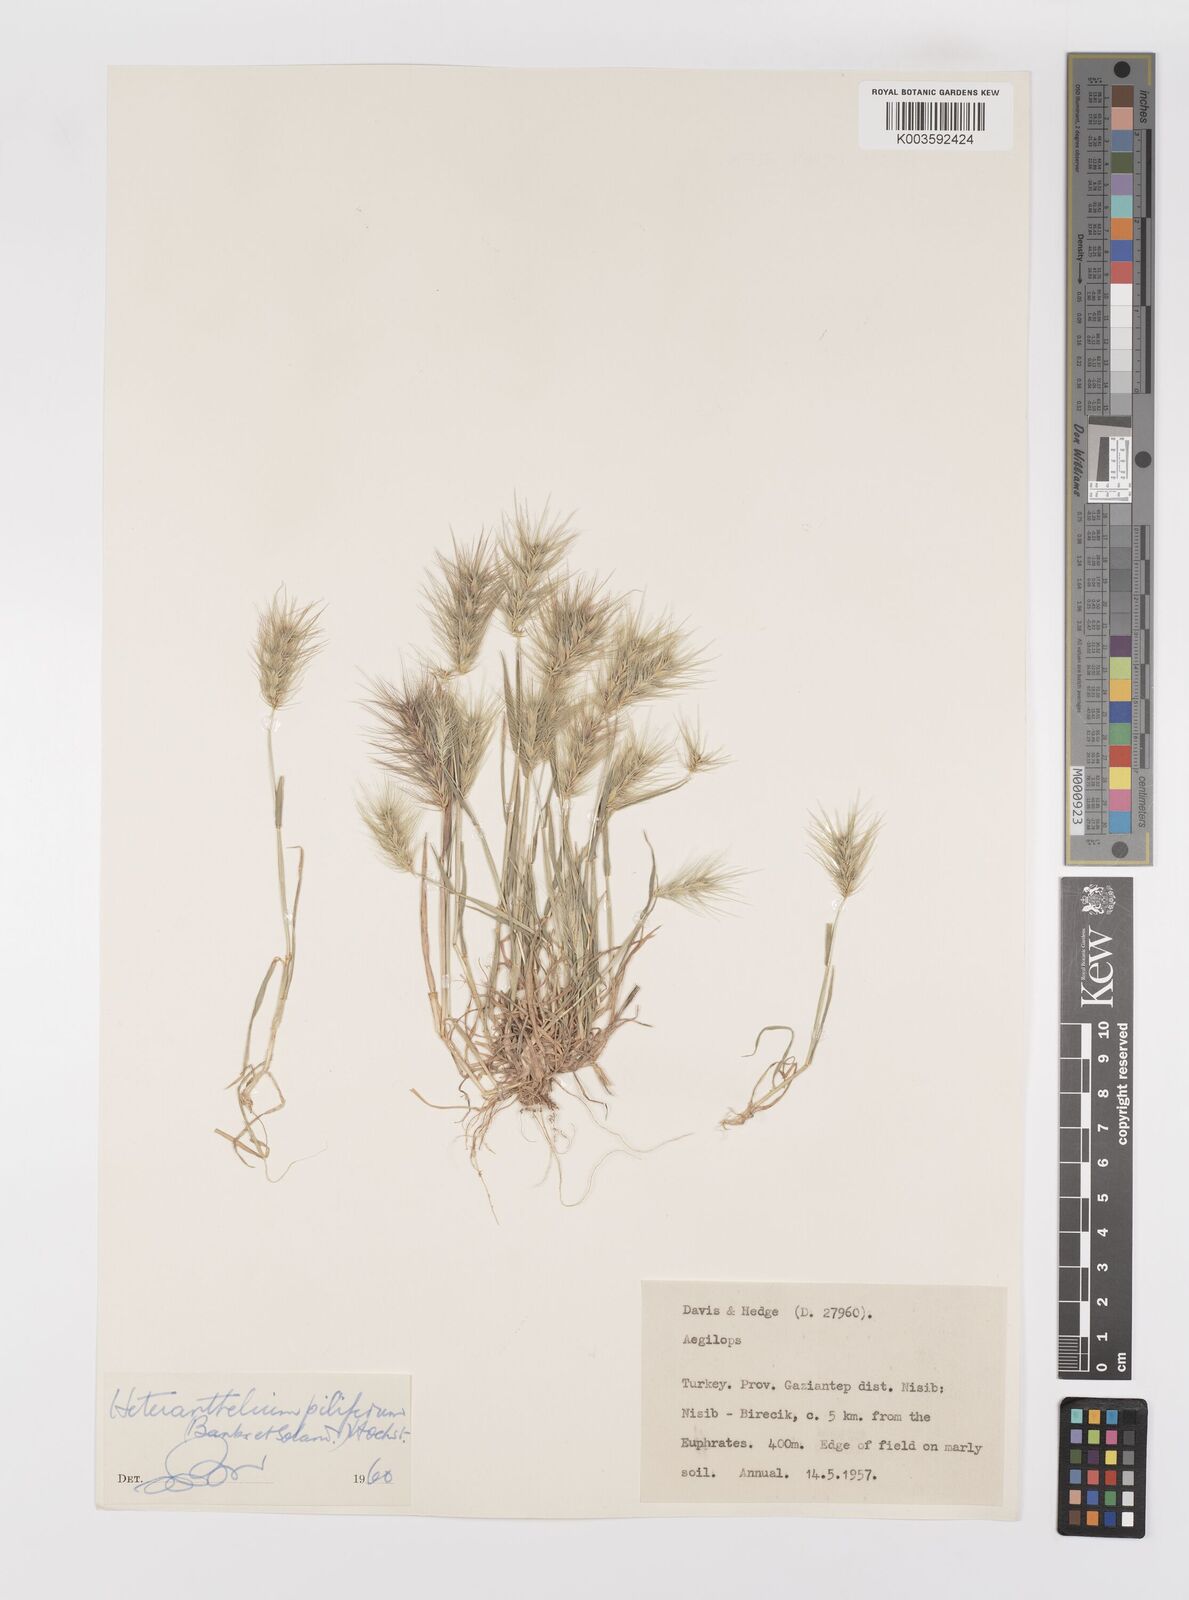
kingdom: Plantae
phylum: Tracheophyta
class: Liliopsida
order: Poales
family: Poaceae
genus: Heteranthelium
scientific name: Heteranthelium piliferum
